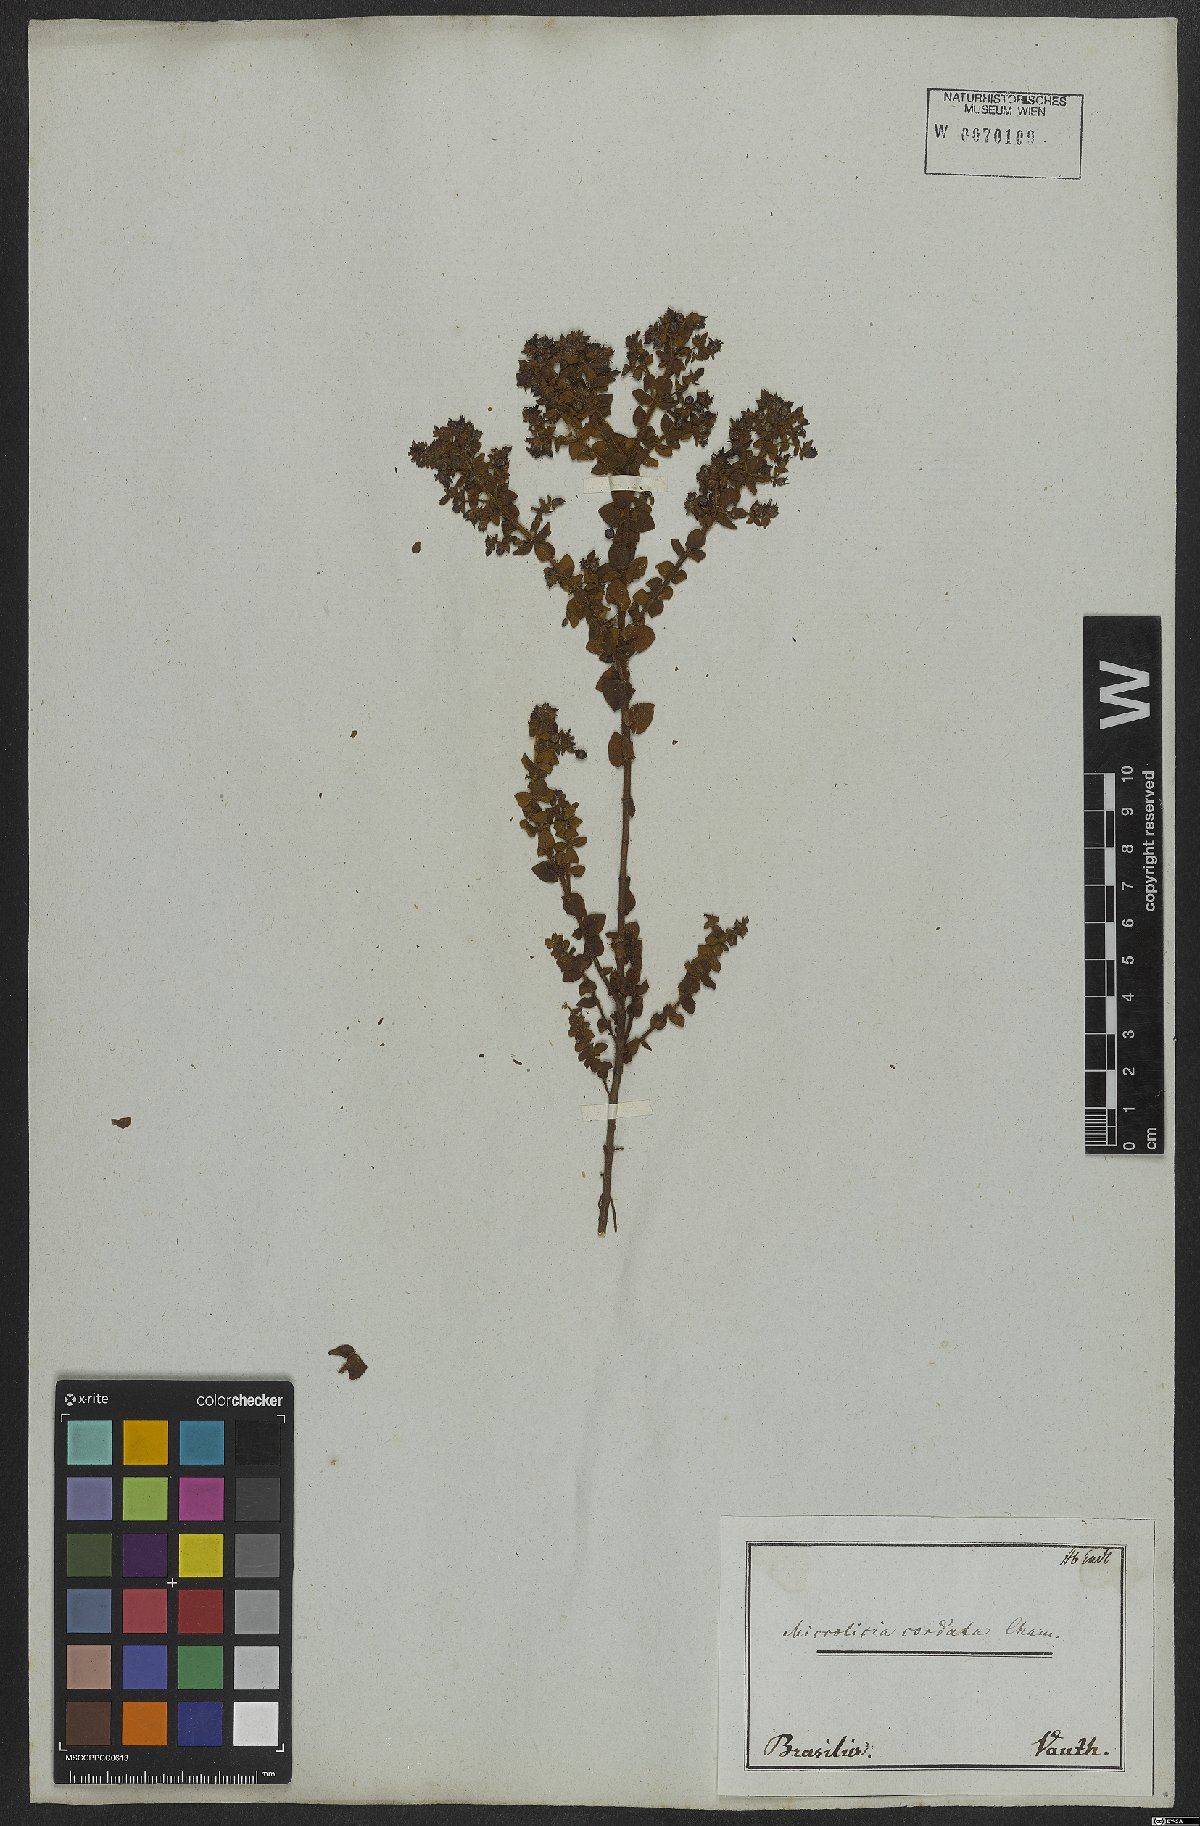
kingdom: Plantae
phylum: Tracheophyta
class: Magnoliopsida
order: Myrtales
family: Melastomataceae
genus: Microlicia
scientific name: Microlicia cordata
